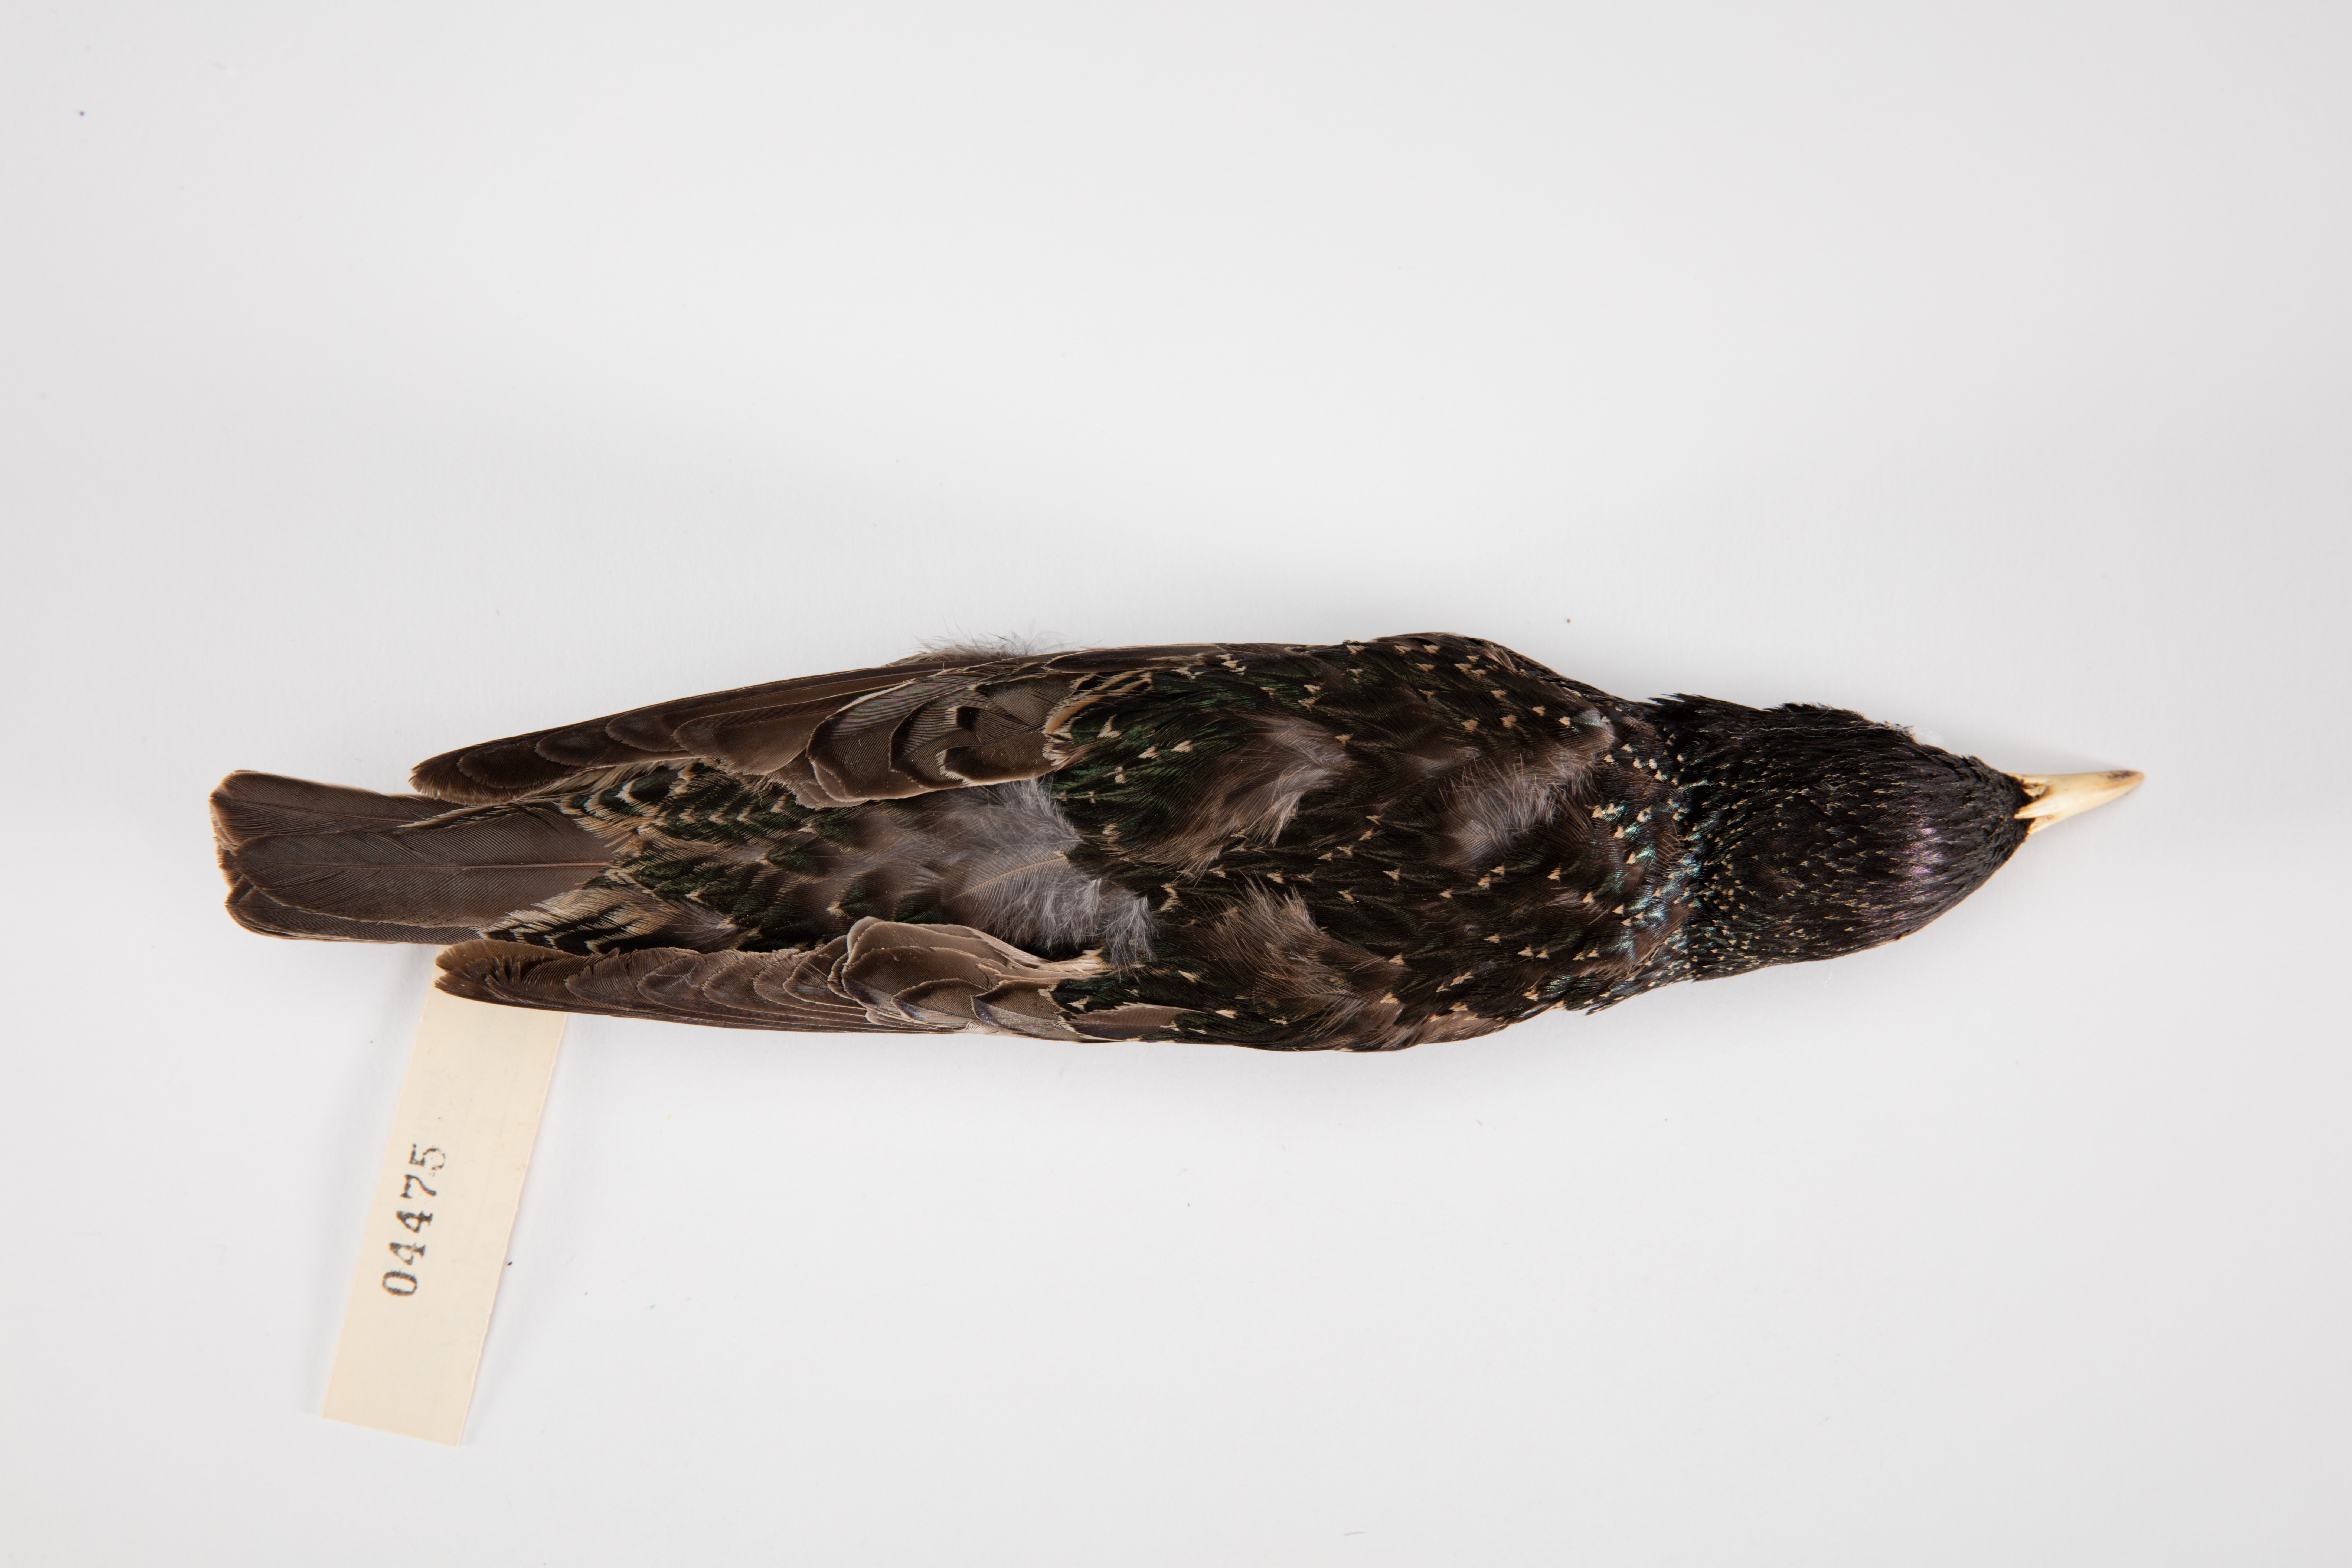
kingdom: Animalia
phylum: Chordata
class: Aves
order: Passeriformes
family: Sturnidae
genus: Sturnus
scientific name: Sturnus vulgaris
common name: Common starling
